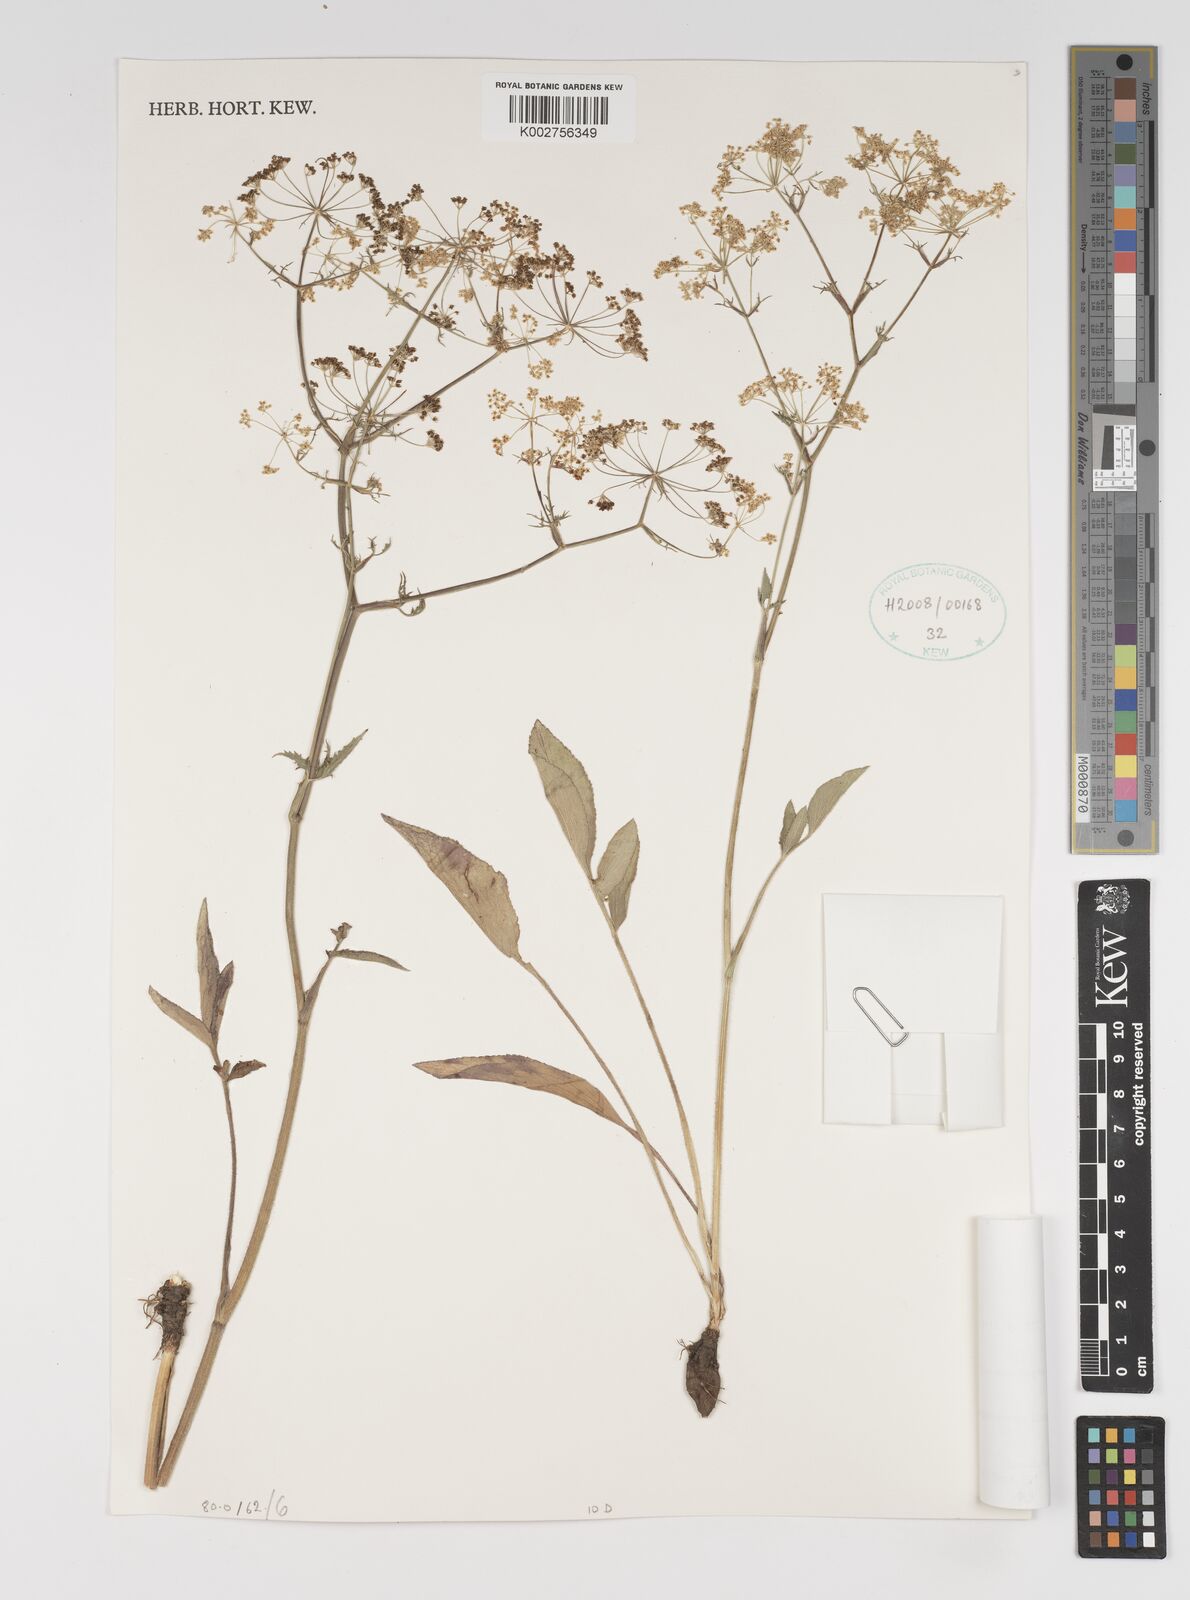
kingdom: Plantae
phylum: Tracheophyta
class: Magnoliopsida
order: Apiales
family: Apiaceae
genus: Pimpinella
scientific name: Pimpinella alismatifolia
